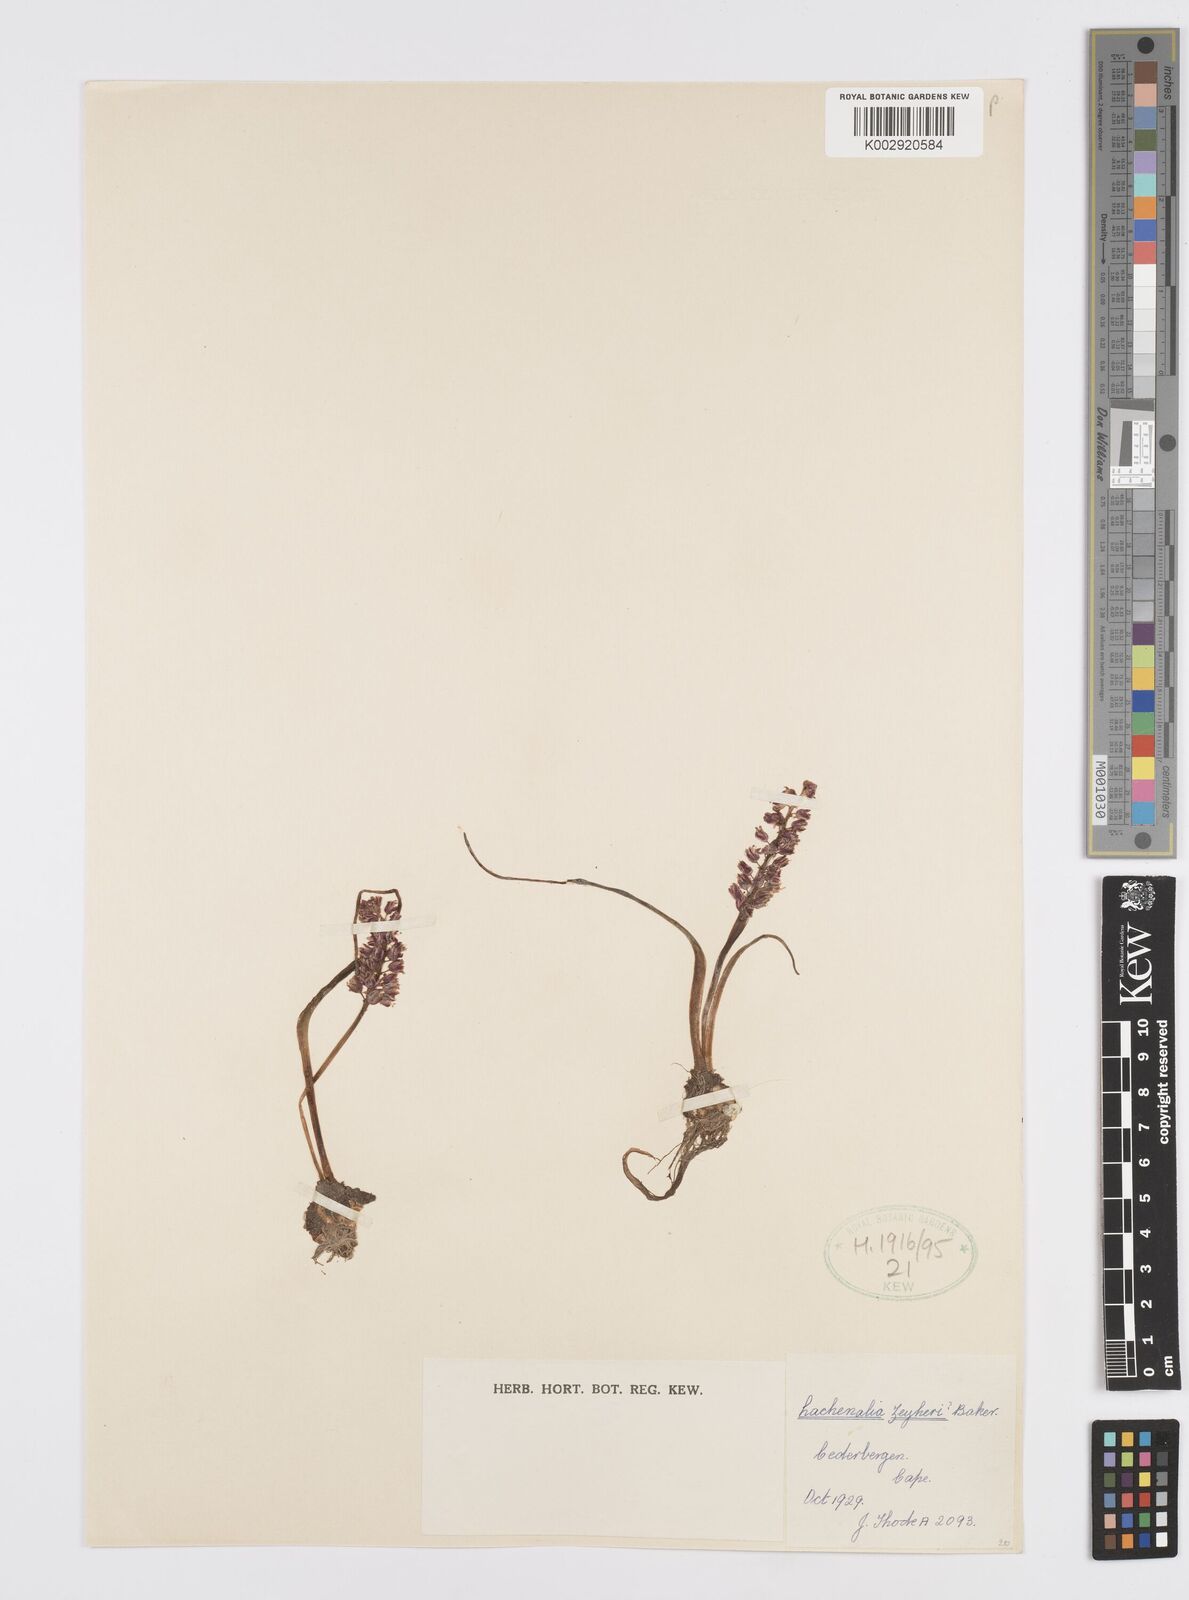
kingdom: Plantae
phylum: Tracheophyta
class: Liliopsida
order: Asparagales
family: Asparagaceae
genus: Lachenalia
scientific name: Lachenalia zeyheri
